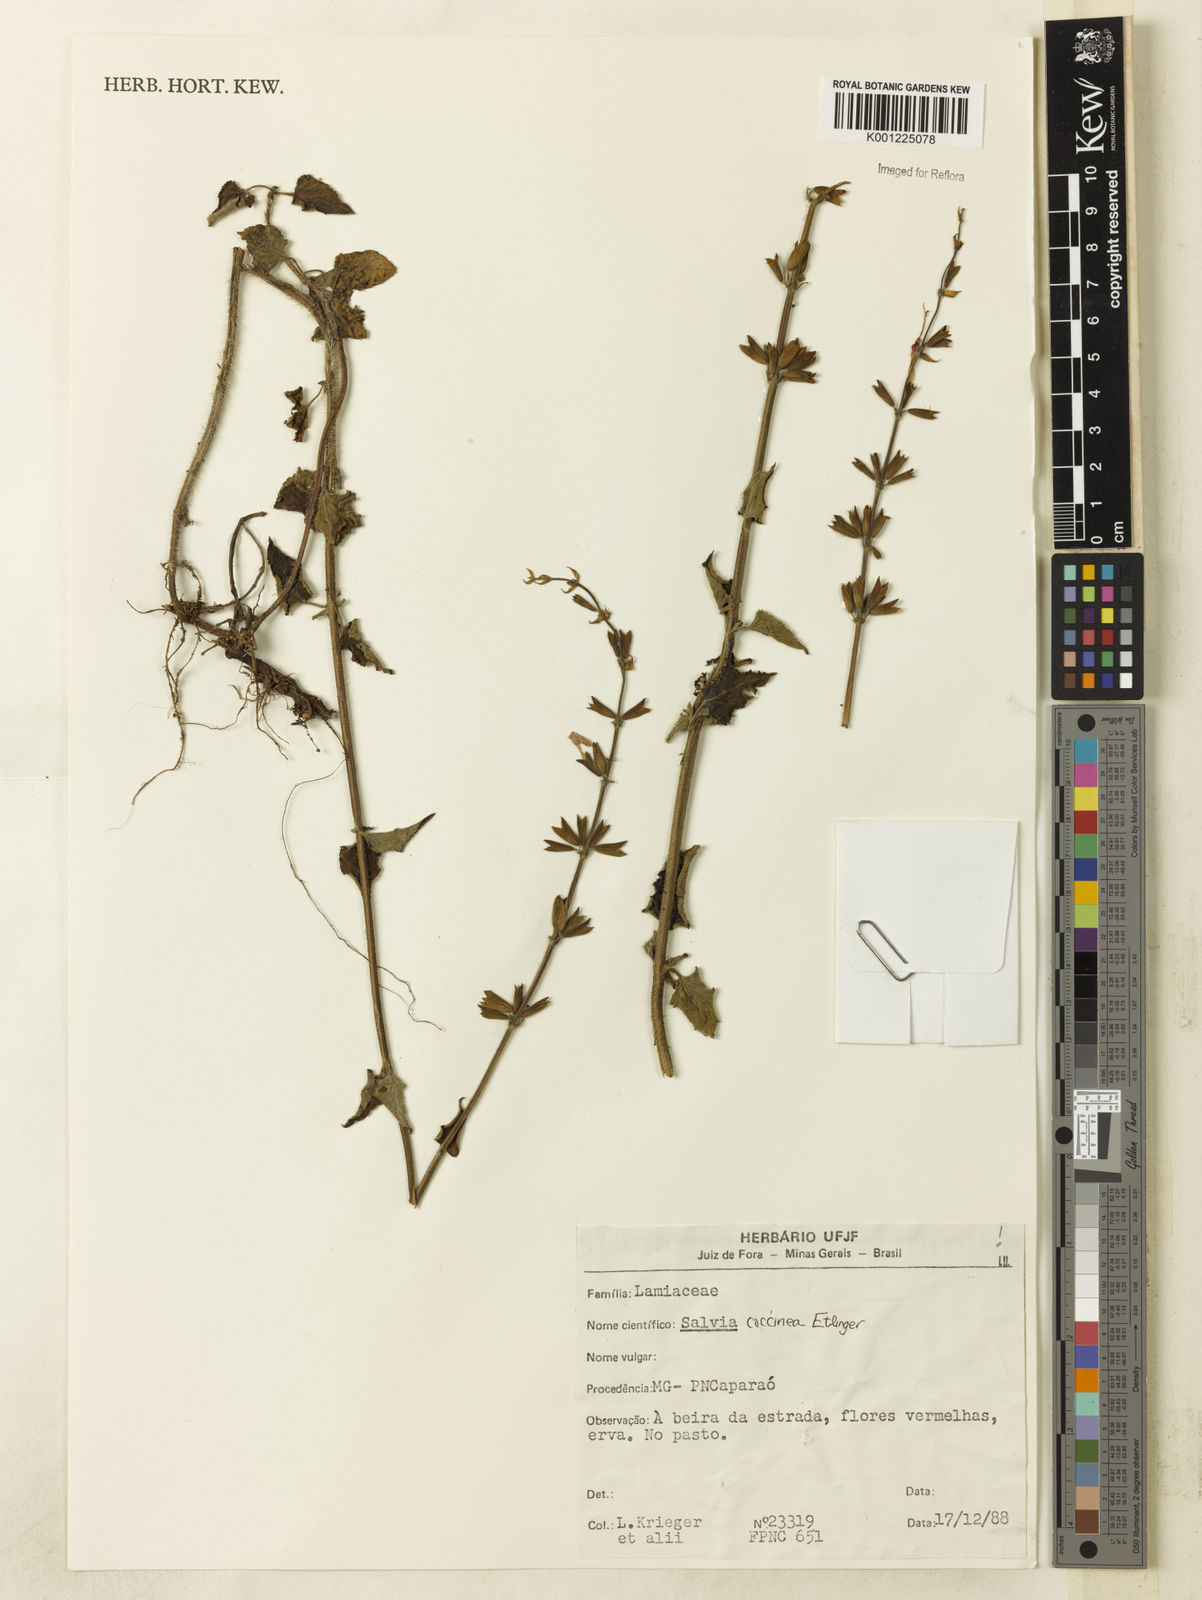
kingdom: Plantae
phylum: Tracheophyta
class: Magnoliopsida
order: Lamiales
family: Lamiaceae
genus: Salvia
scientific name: Salvia coccinea
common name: Blood sage
